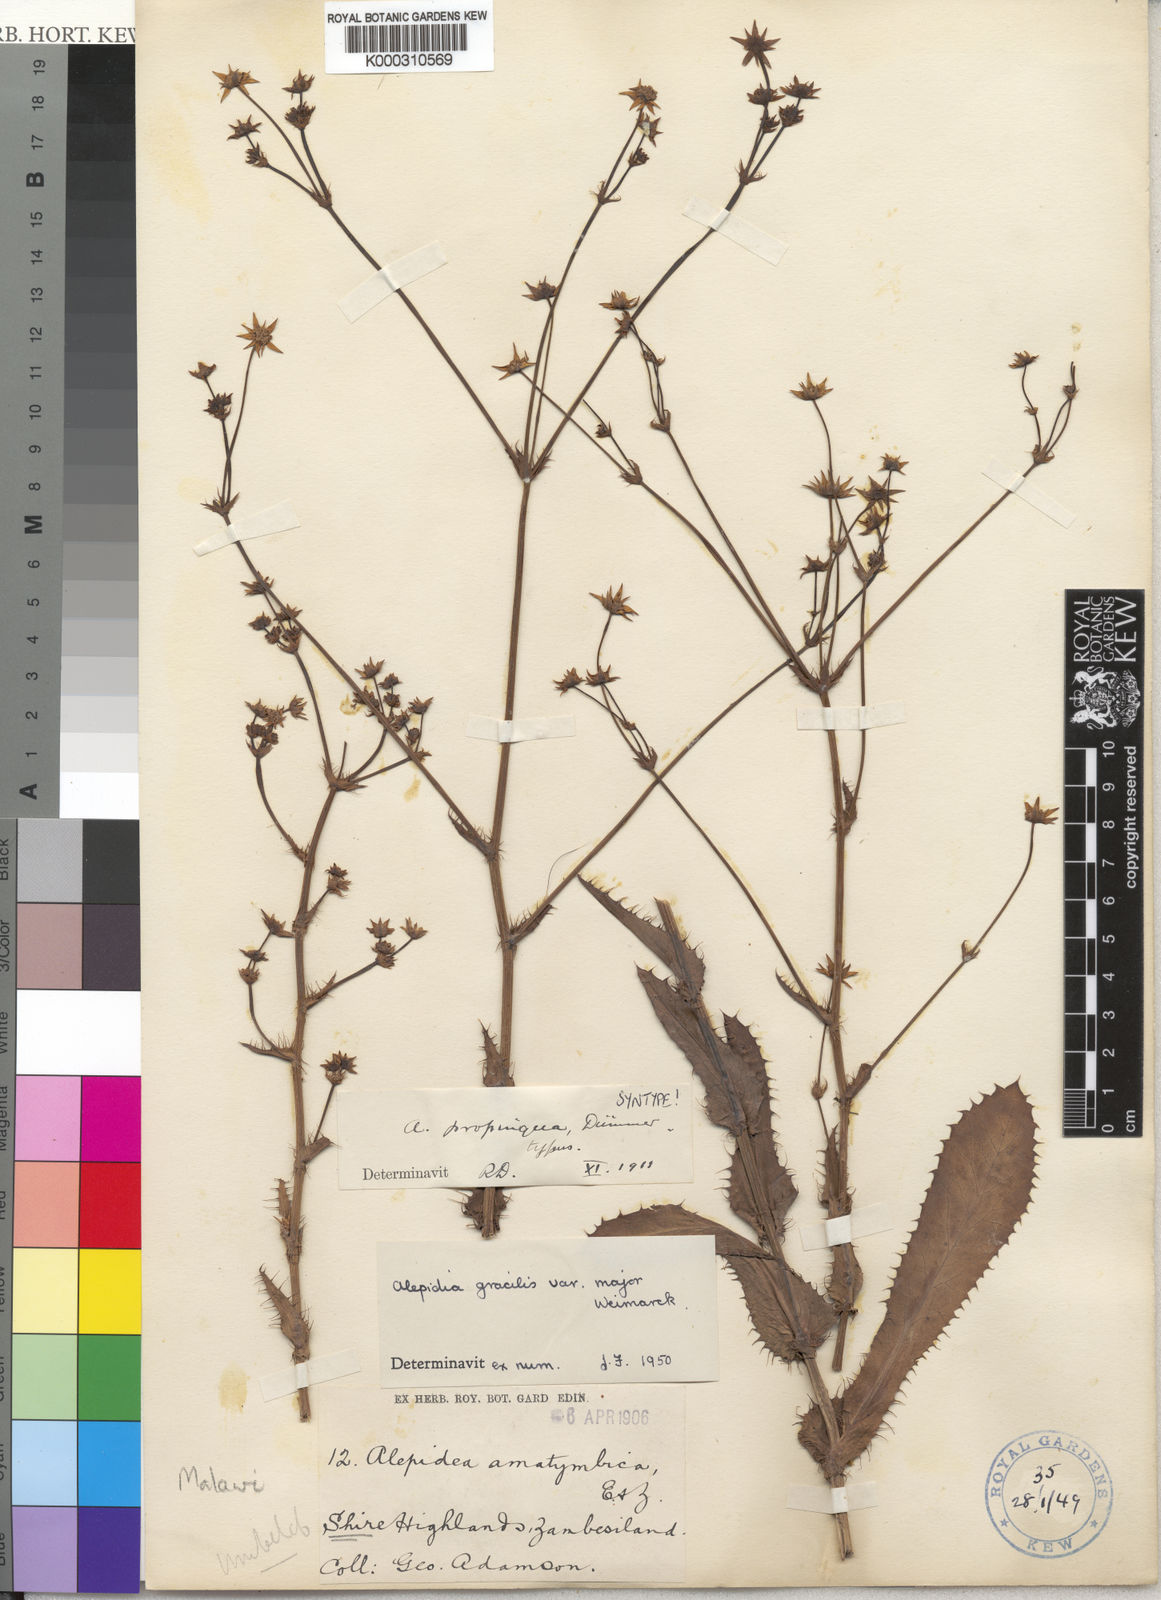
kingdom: Plantae
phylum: Tracheophyta
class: Magnoliopsida
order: Apiales
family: Apiaceae
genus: Alepidea
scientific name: Alepidea peduncularis
